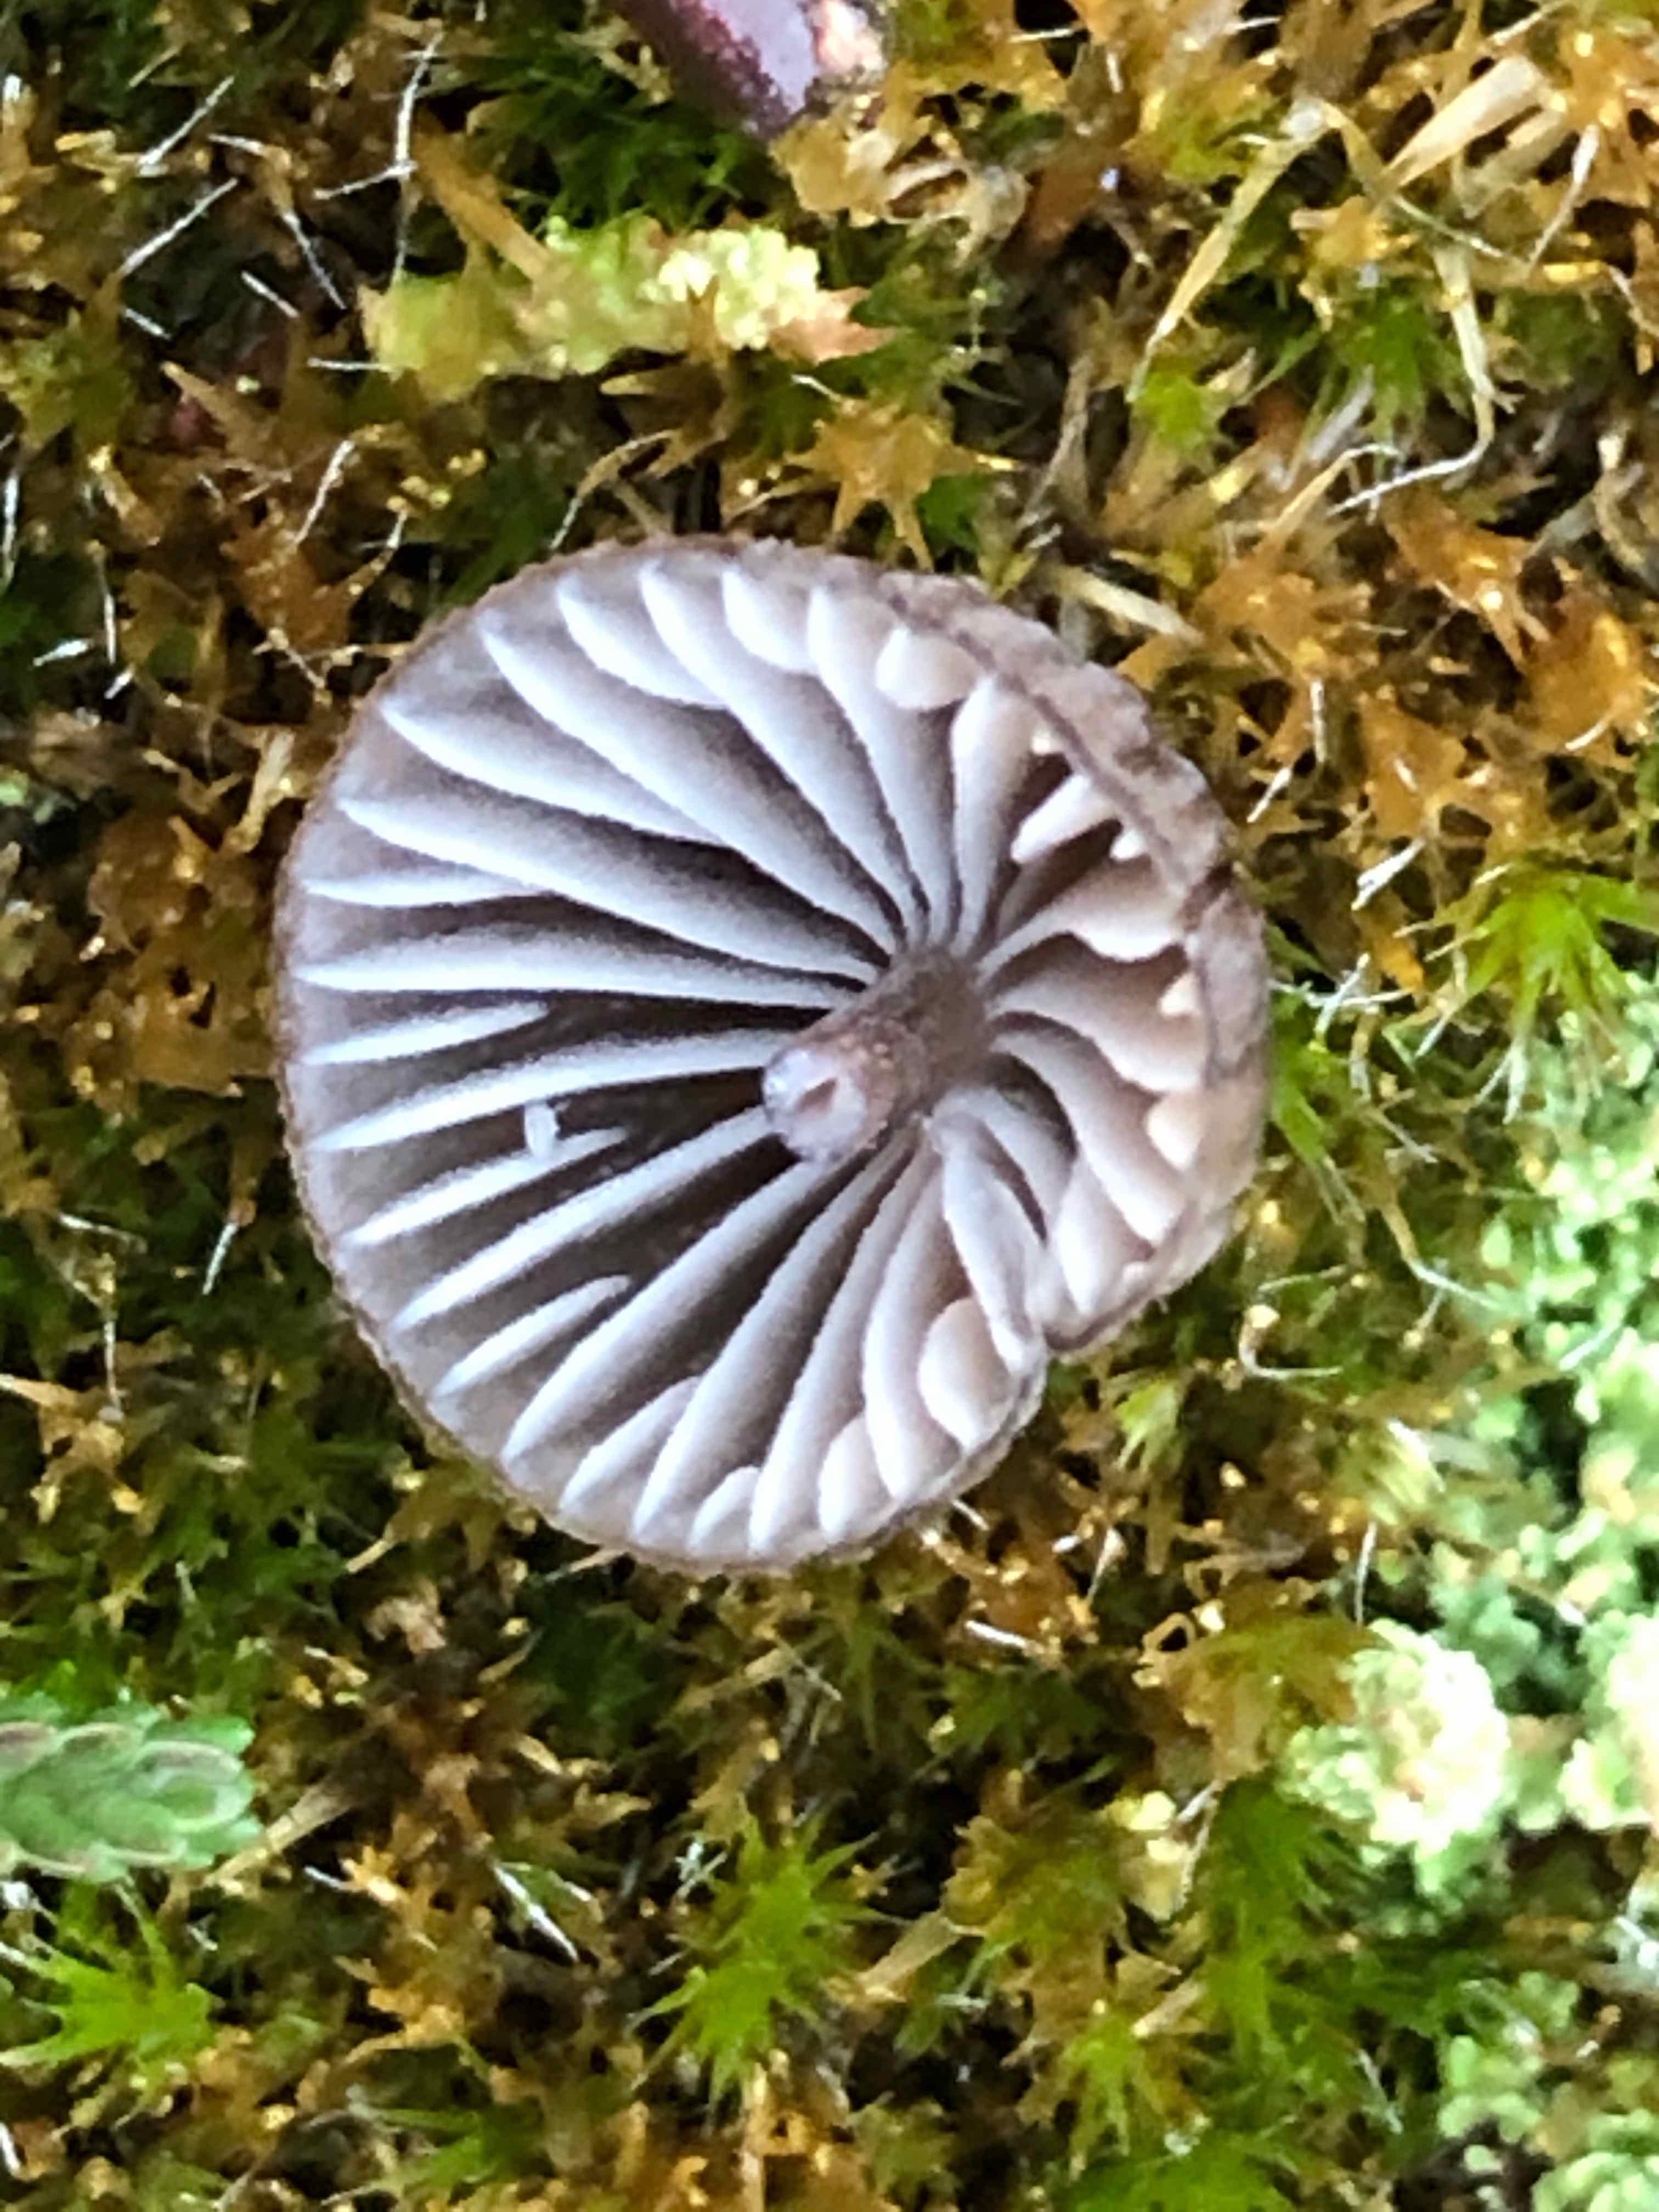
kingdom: Fungi
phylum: Basidiomycota
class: Agaricomycetes
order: Agaricales
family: Mycenaceae
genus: Mycena
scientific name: Mycena galopus
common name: hvidmælket huesvamp
